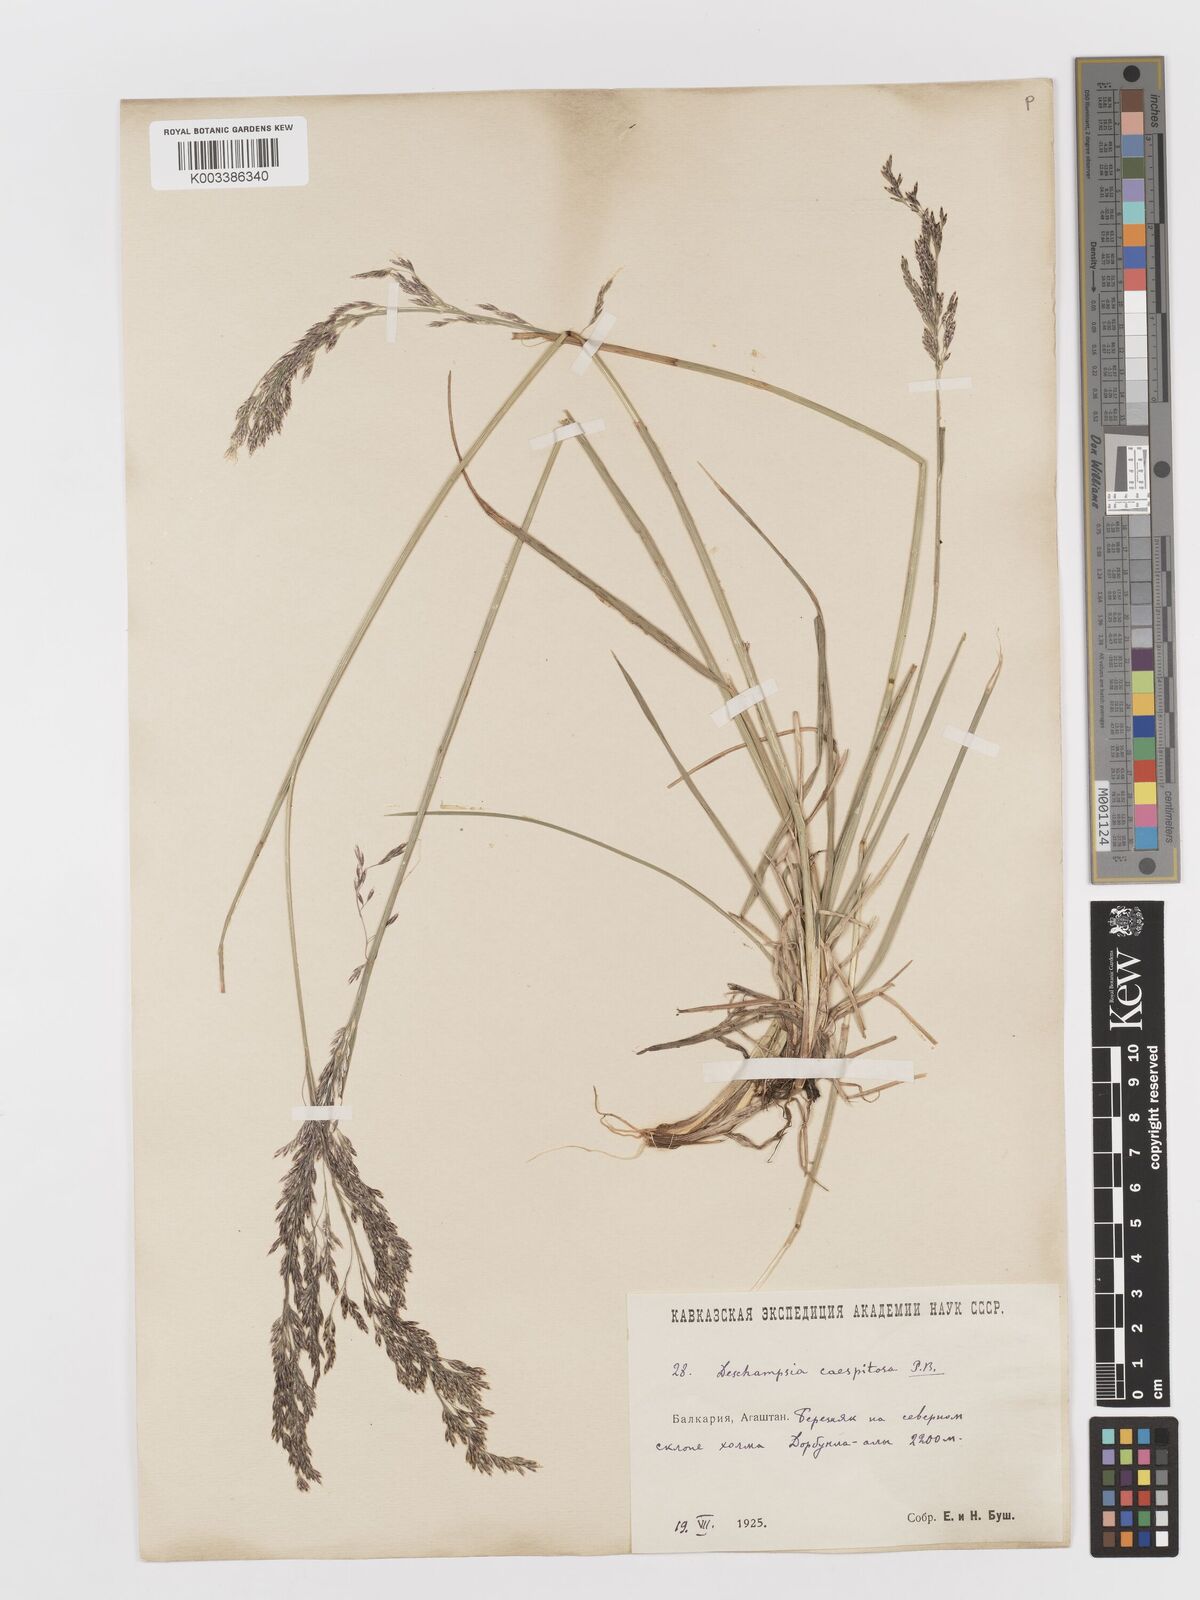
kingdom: Plantae
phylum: Tracheophyta
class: Liliopsida
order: Poales
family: Poaceae
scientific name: Poaceae
